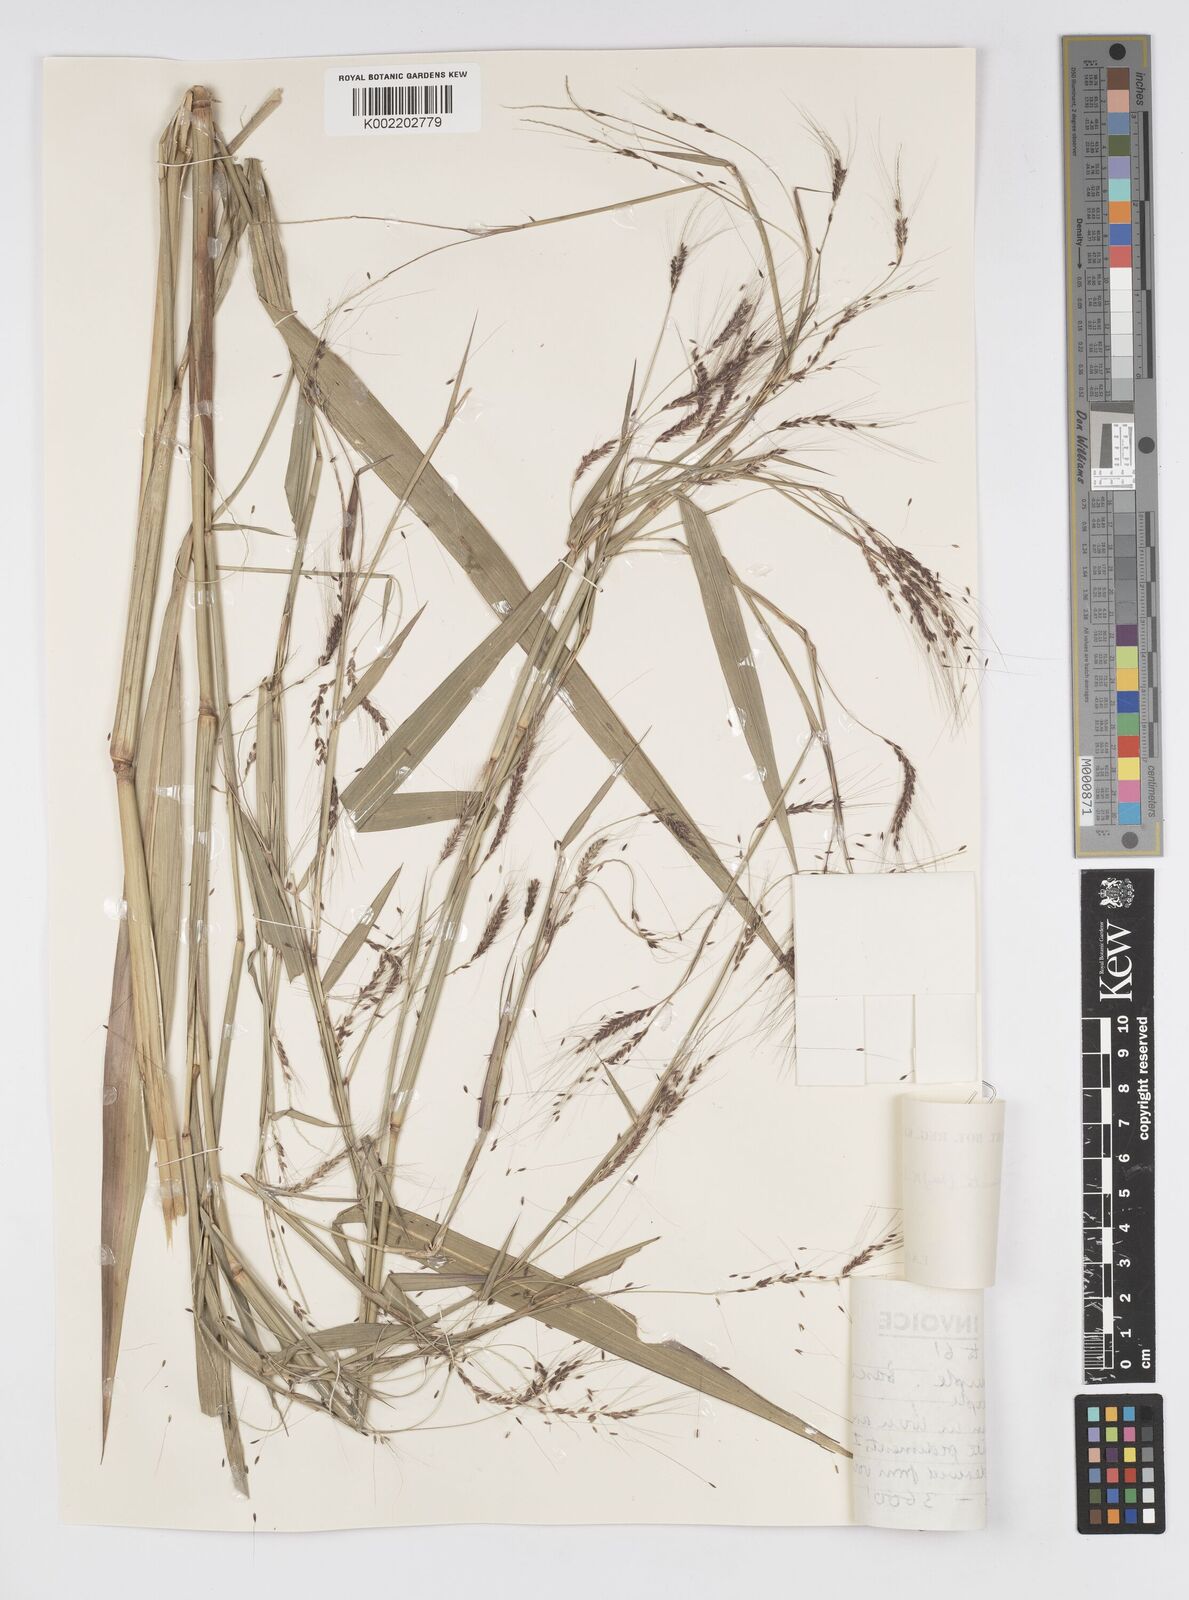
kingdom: Plantae
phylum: Tracheophyta
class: Liliopsida
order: Poales
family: Poaceae
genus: Cenchrus
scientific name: Cenchrus unisetus
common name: Natal grass
